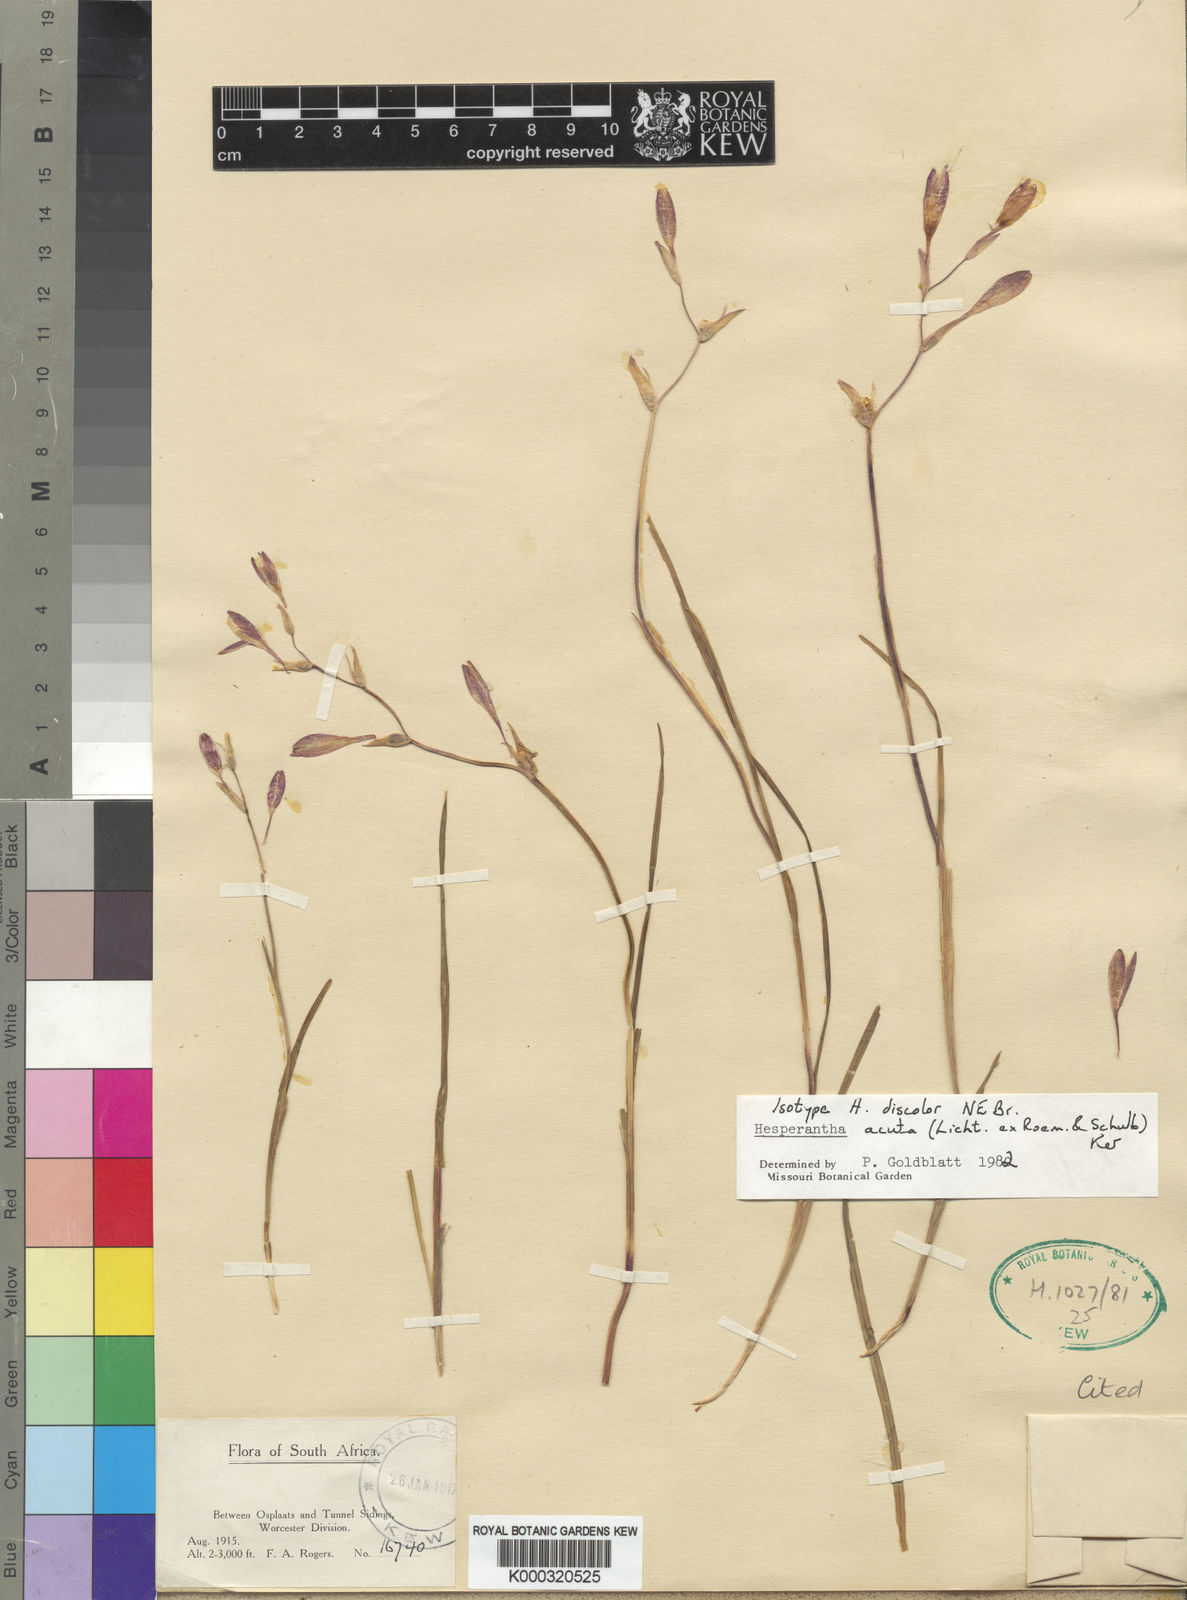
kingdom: Plantae
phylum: Tracheophyta
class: Liliopsida
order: Asparagales
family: Iridaceae
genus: Hesperantha
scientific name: Hesperantha acuta
